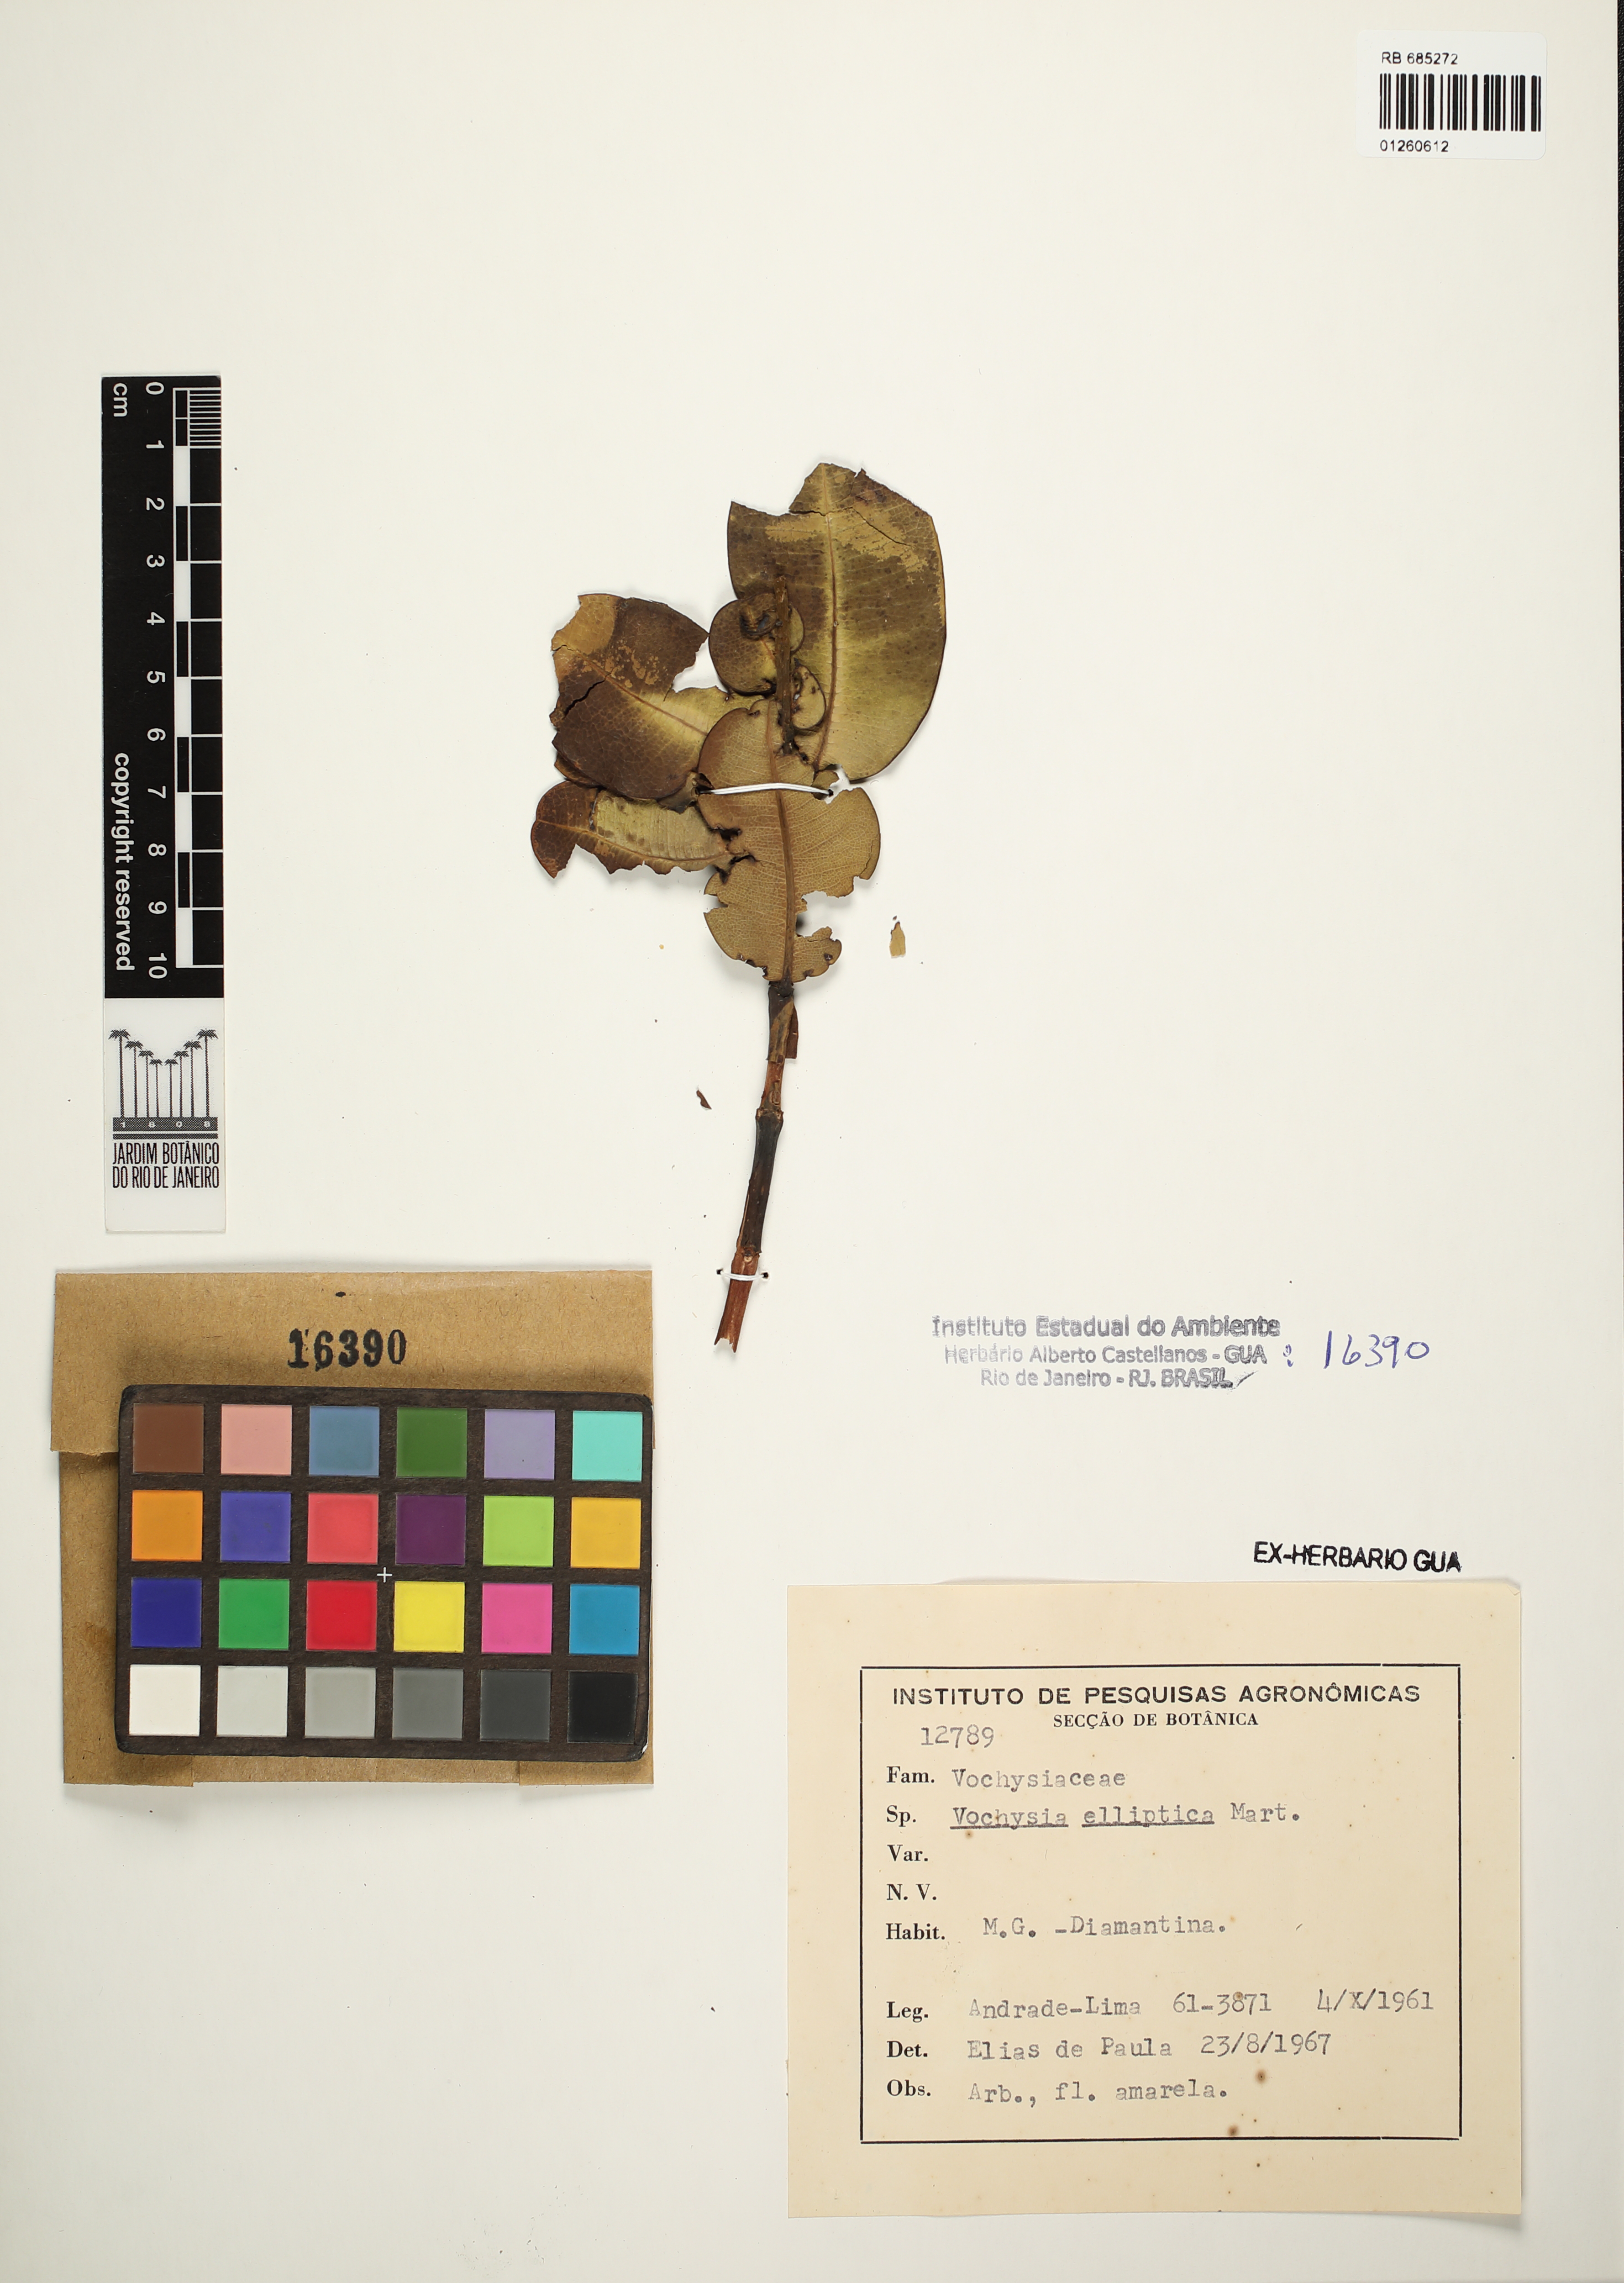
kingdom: Plantae
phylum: Tracheophyta
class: Magnoliopsida
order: Myrtales
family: Vochysiaceae
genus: Vochysia
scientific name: Vochysia elliptica
